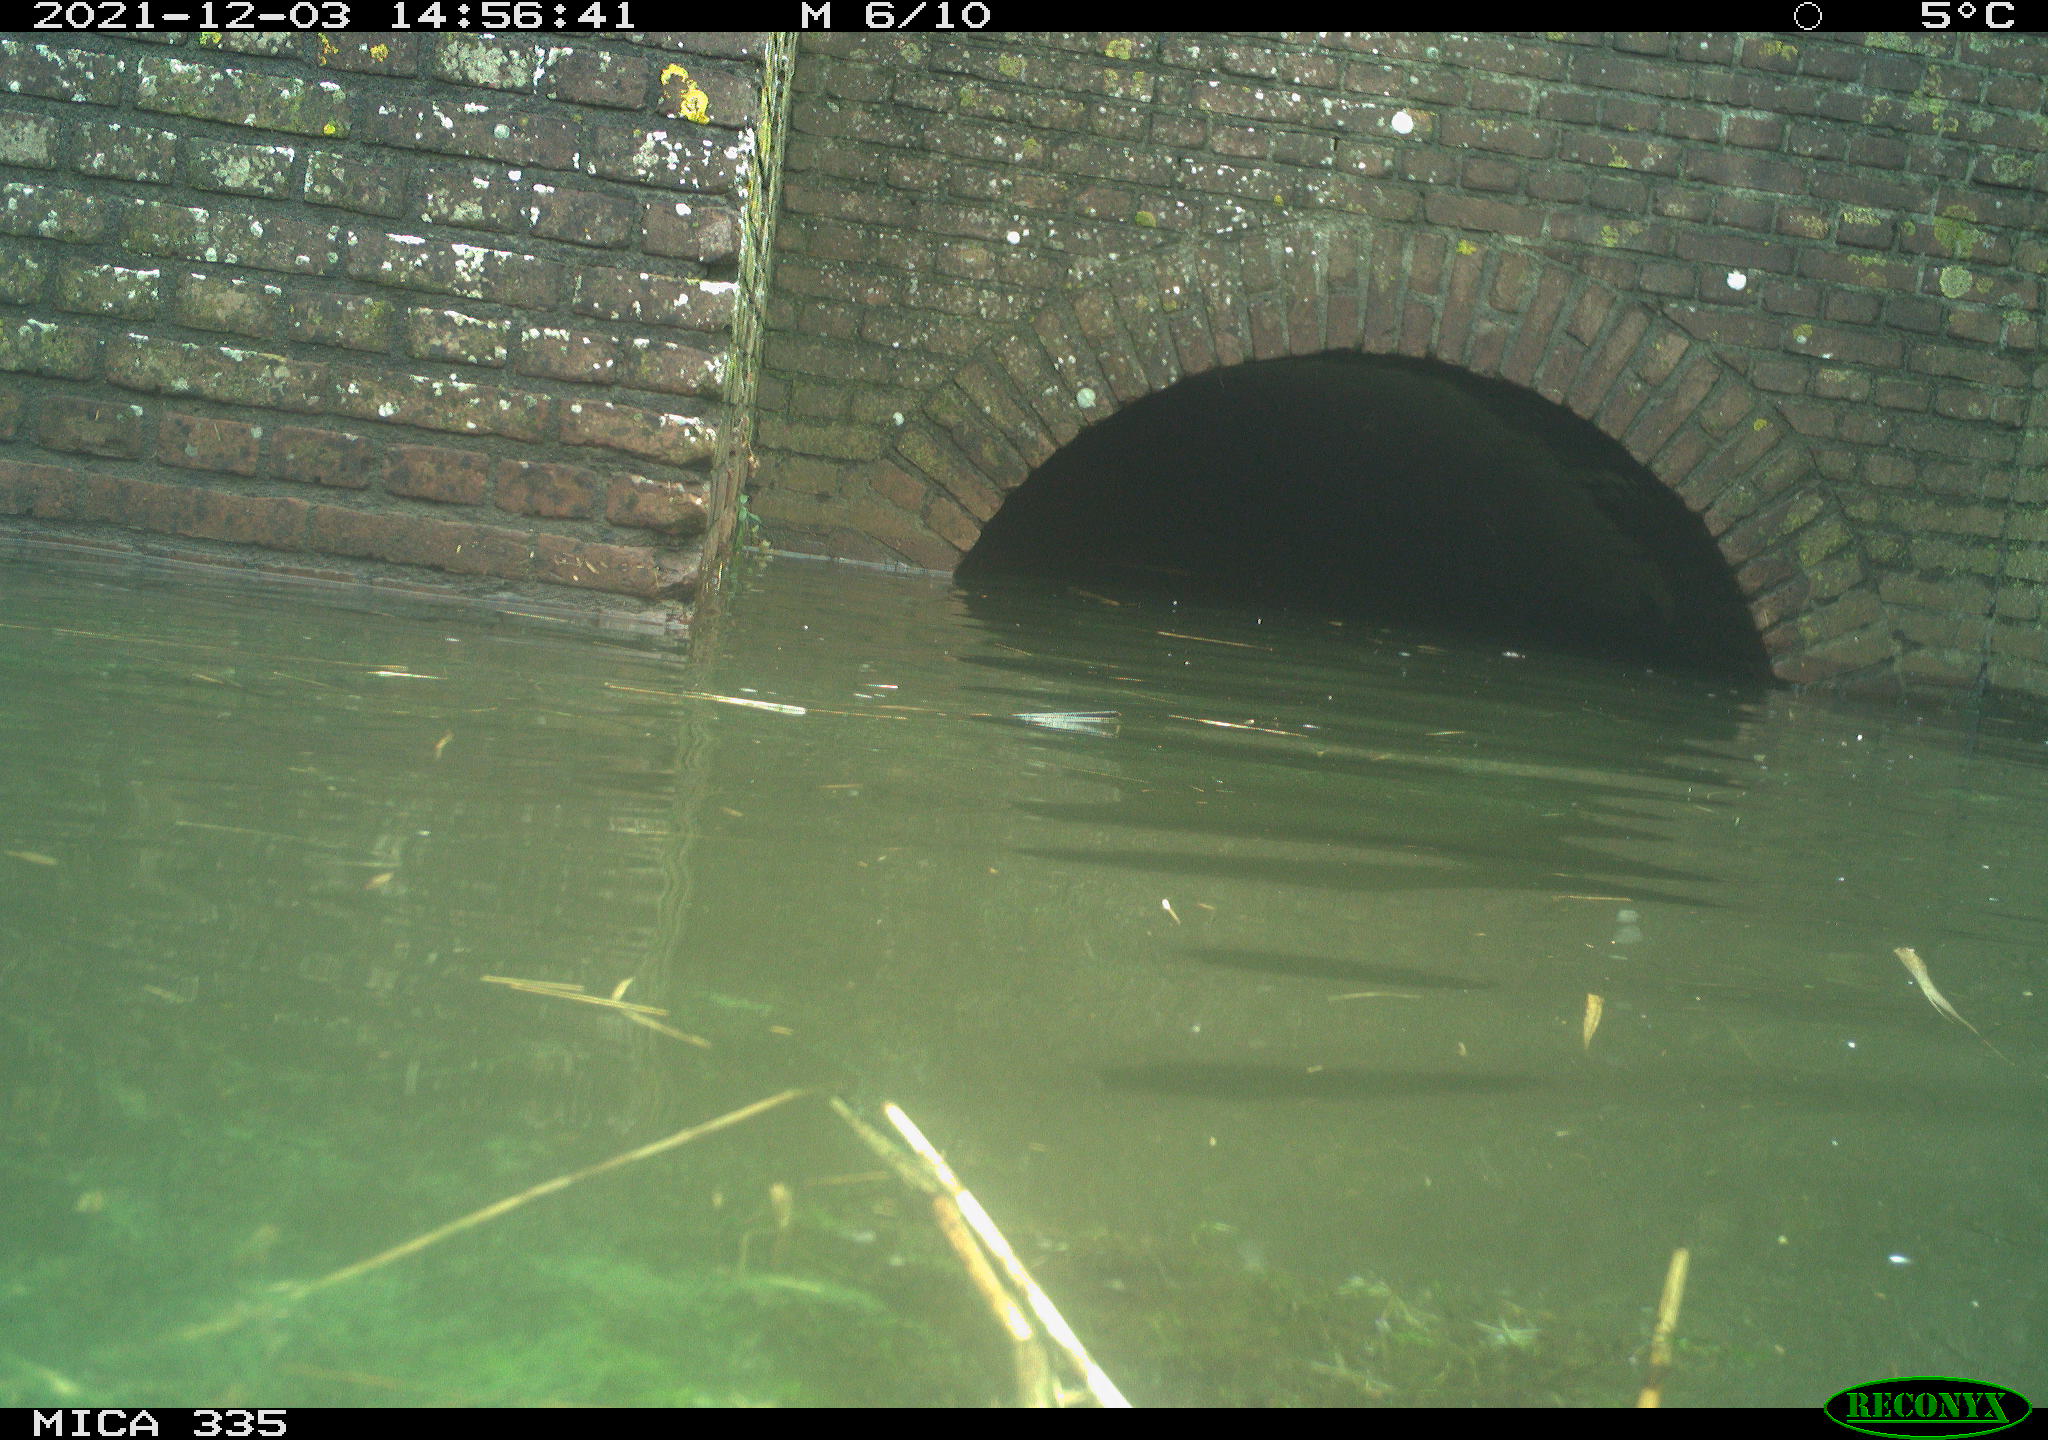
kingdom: Animalia
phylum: Chordata
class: Aves
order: Gruiformes
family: Rallidae
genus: Gallinula
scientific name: Gallinula chloropus
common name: Common moorhen
